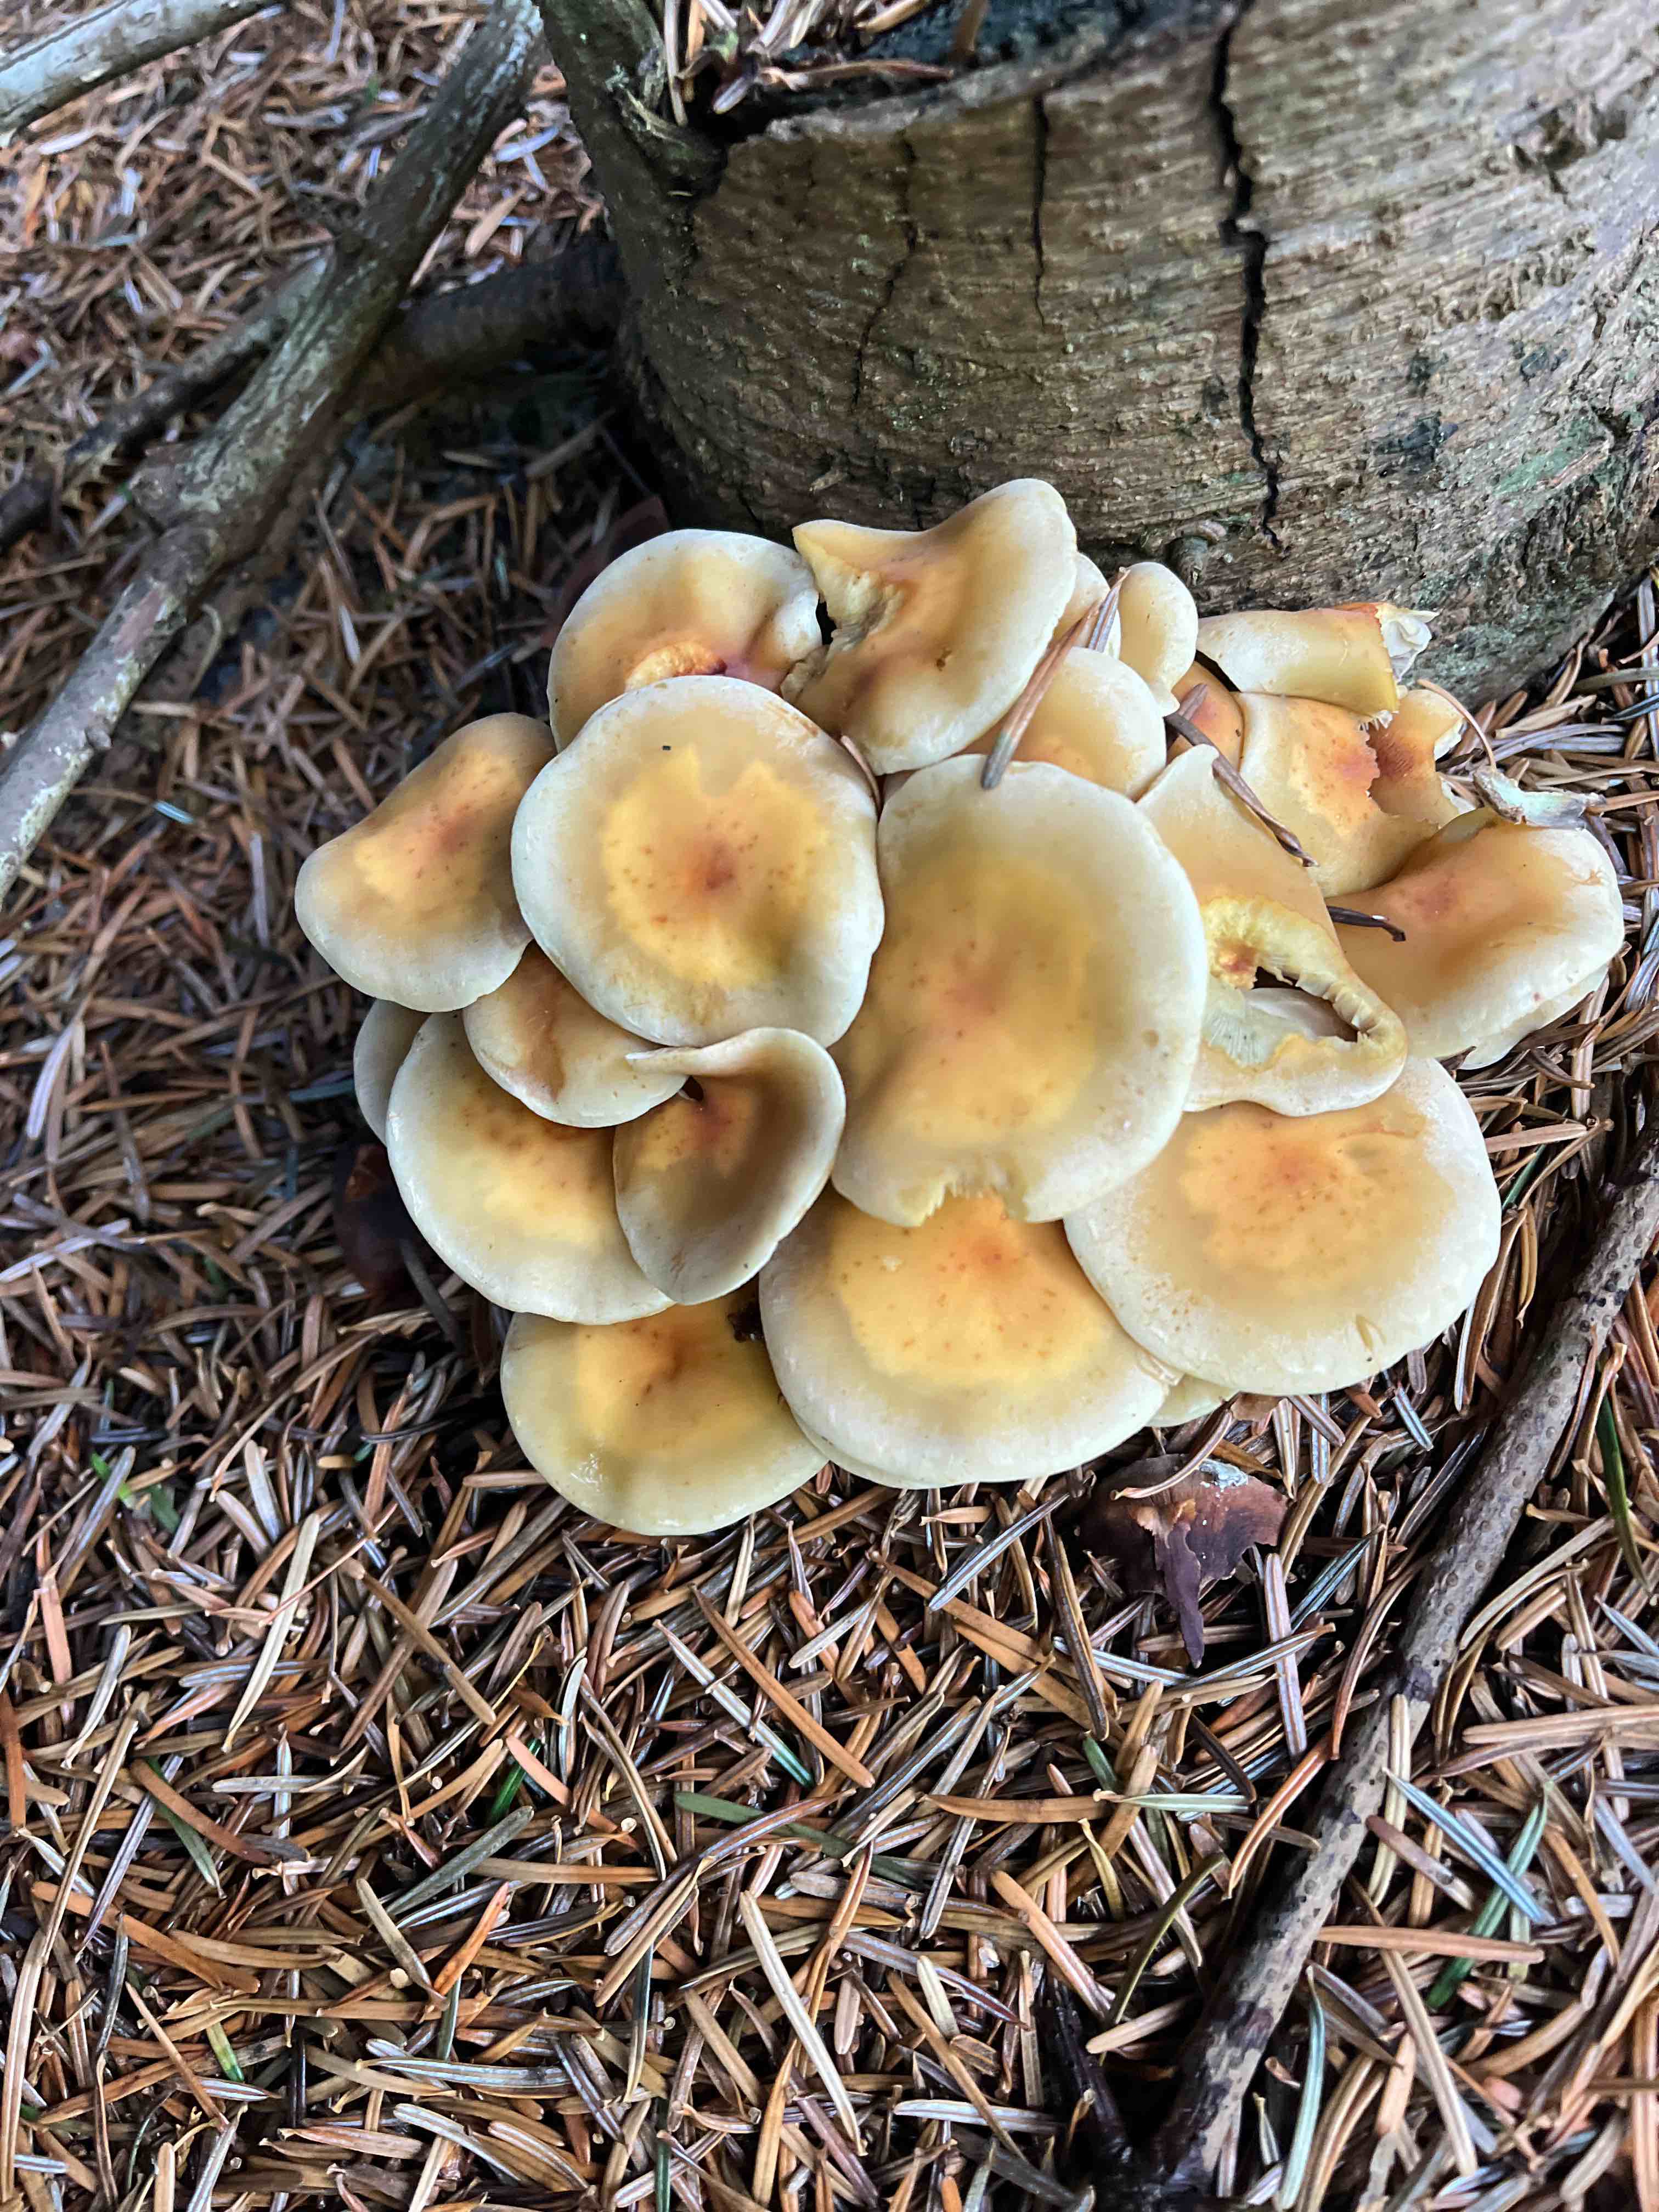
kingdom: Fungi
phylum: Basidiomycota
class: Agaricomycetes
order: Agaricales
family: Strophariaceae
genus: Hypholoma
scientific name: Hypholoma capnoides
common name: gran-svovlhat
